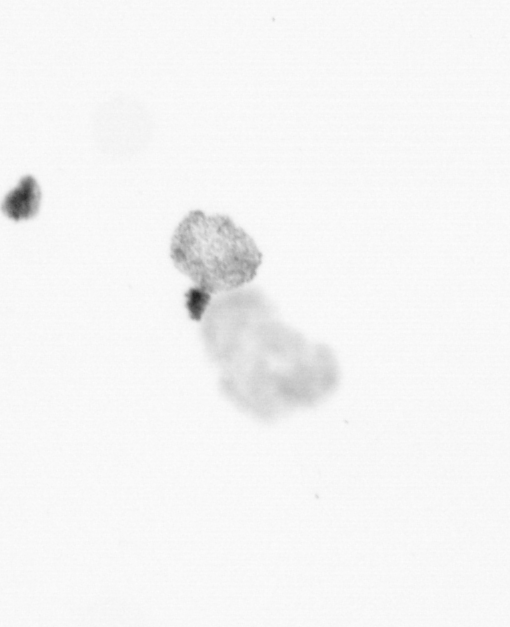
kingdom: Chromista
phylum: Ochrophyta
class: Bacillariophyceae
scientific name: Bacillariophyceae
